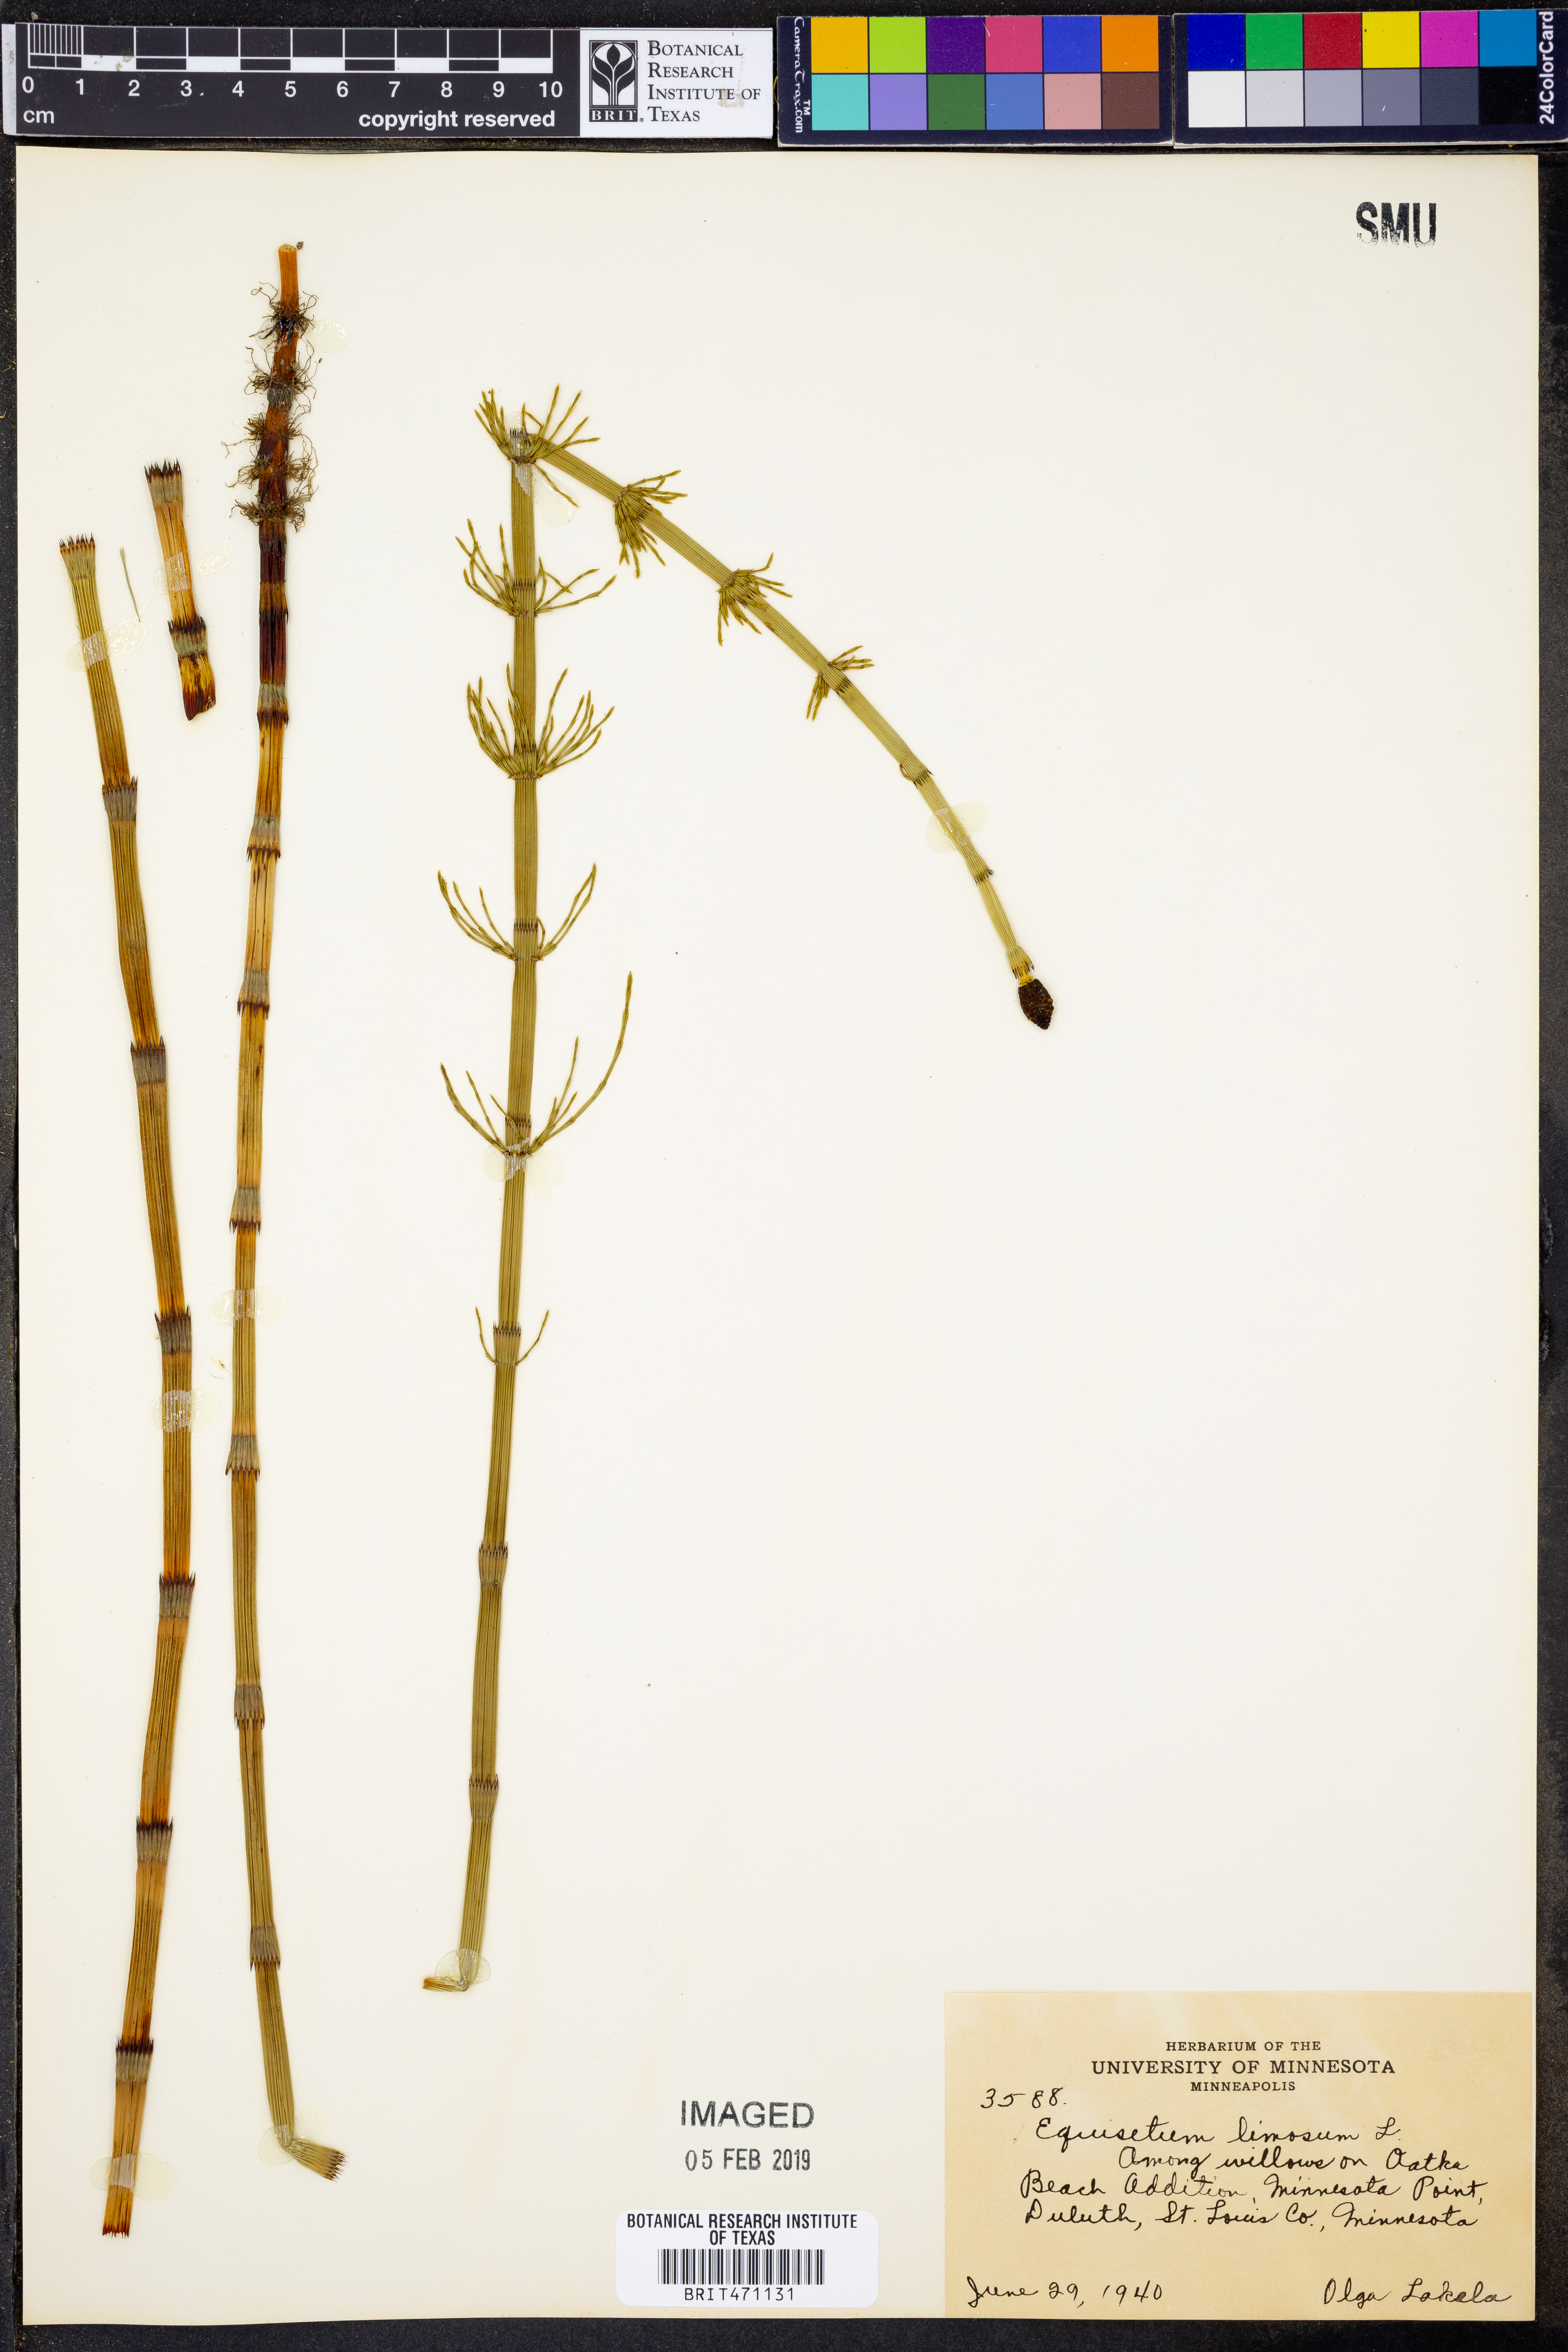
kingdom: Plantae
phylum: Tracheophyta
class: Polypodiopsida
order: Equisetales
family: Equisetaceae
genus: Equisetum
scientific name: Equisetum fluviatile
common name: Water horsetail
